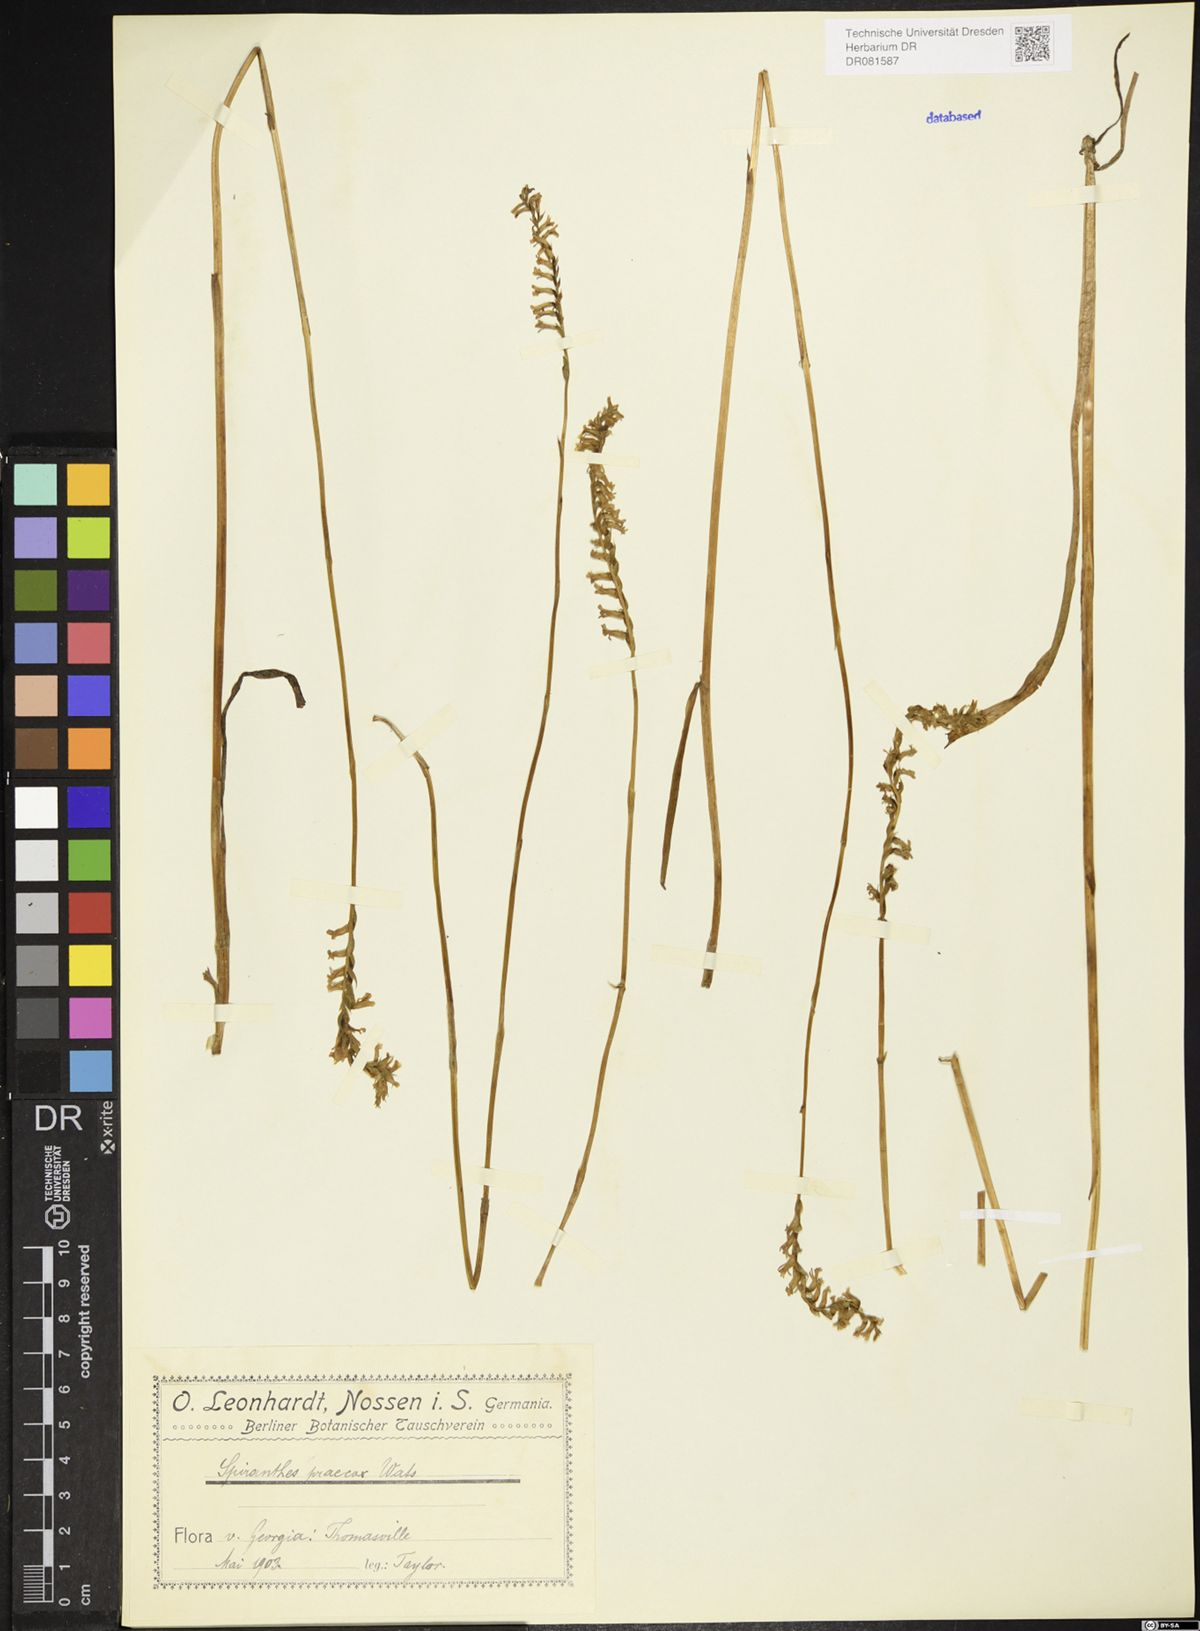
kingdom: Plantae
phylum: Tracheophyta
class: Liliopsida
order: Asparagales
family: Orchidaceae
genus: Spiranthes
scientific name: Spiranthes praecox
